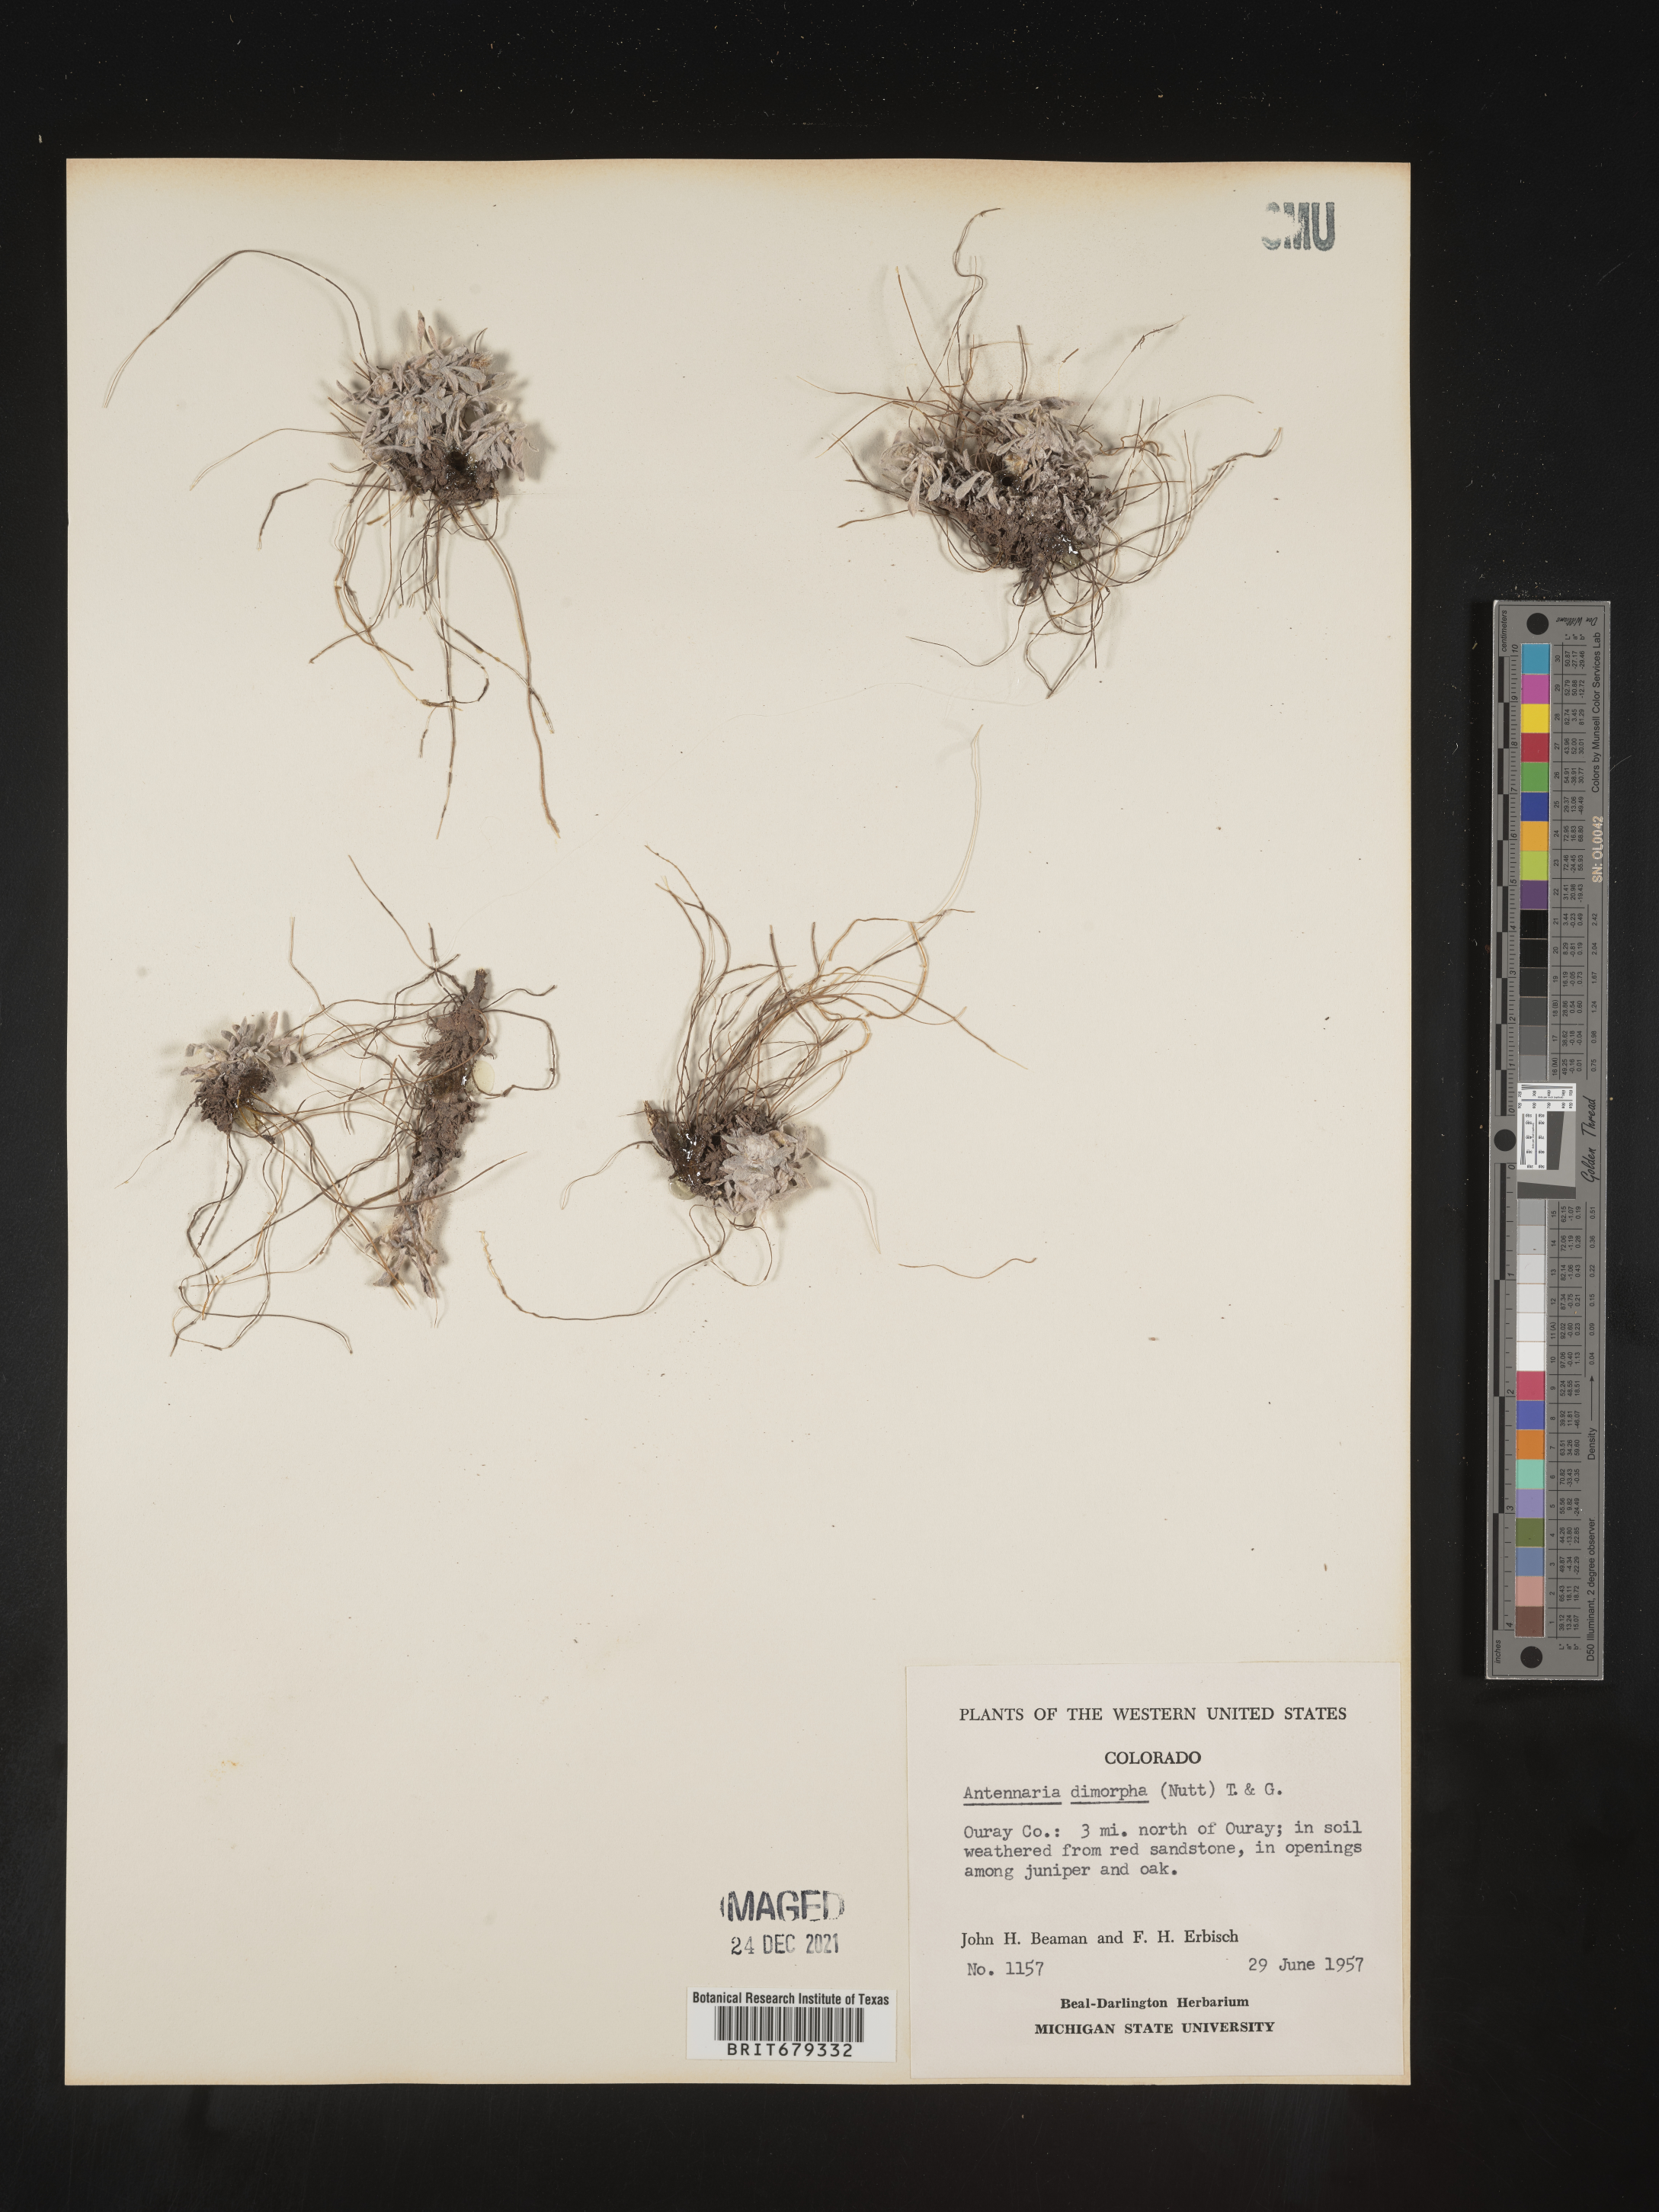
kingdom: Plantae
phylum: Tracheophyta
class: Magnoliopsida
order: Asterales
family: Asteraceae
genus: Antennaria
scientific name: Antennaria dimorpha
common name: Cushion pussytoes
